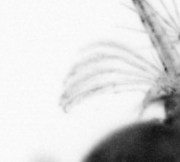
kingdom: Animalia
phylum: Arthropoda
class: Copepoda
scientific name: Copepoda
